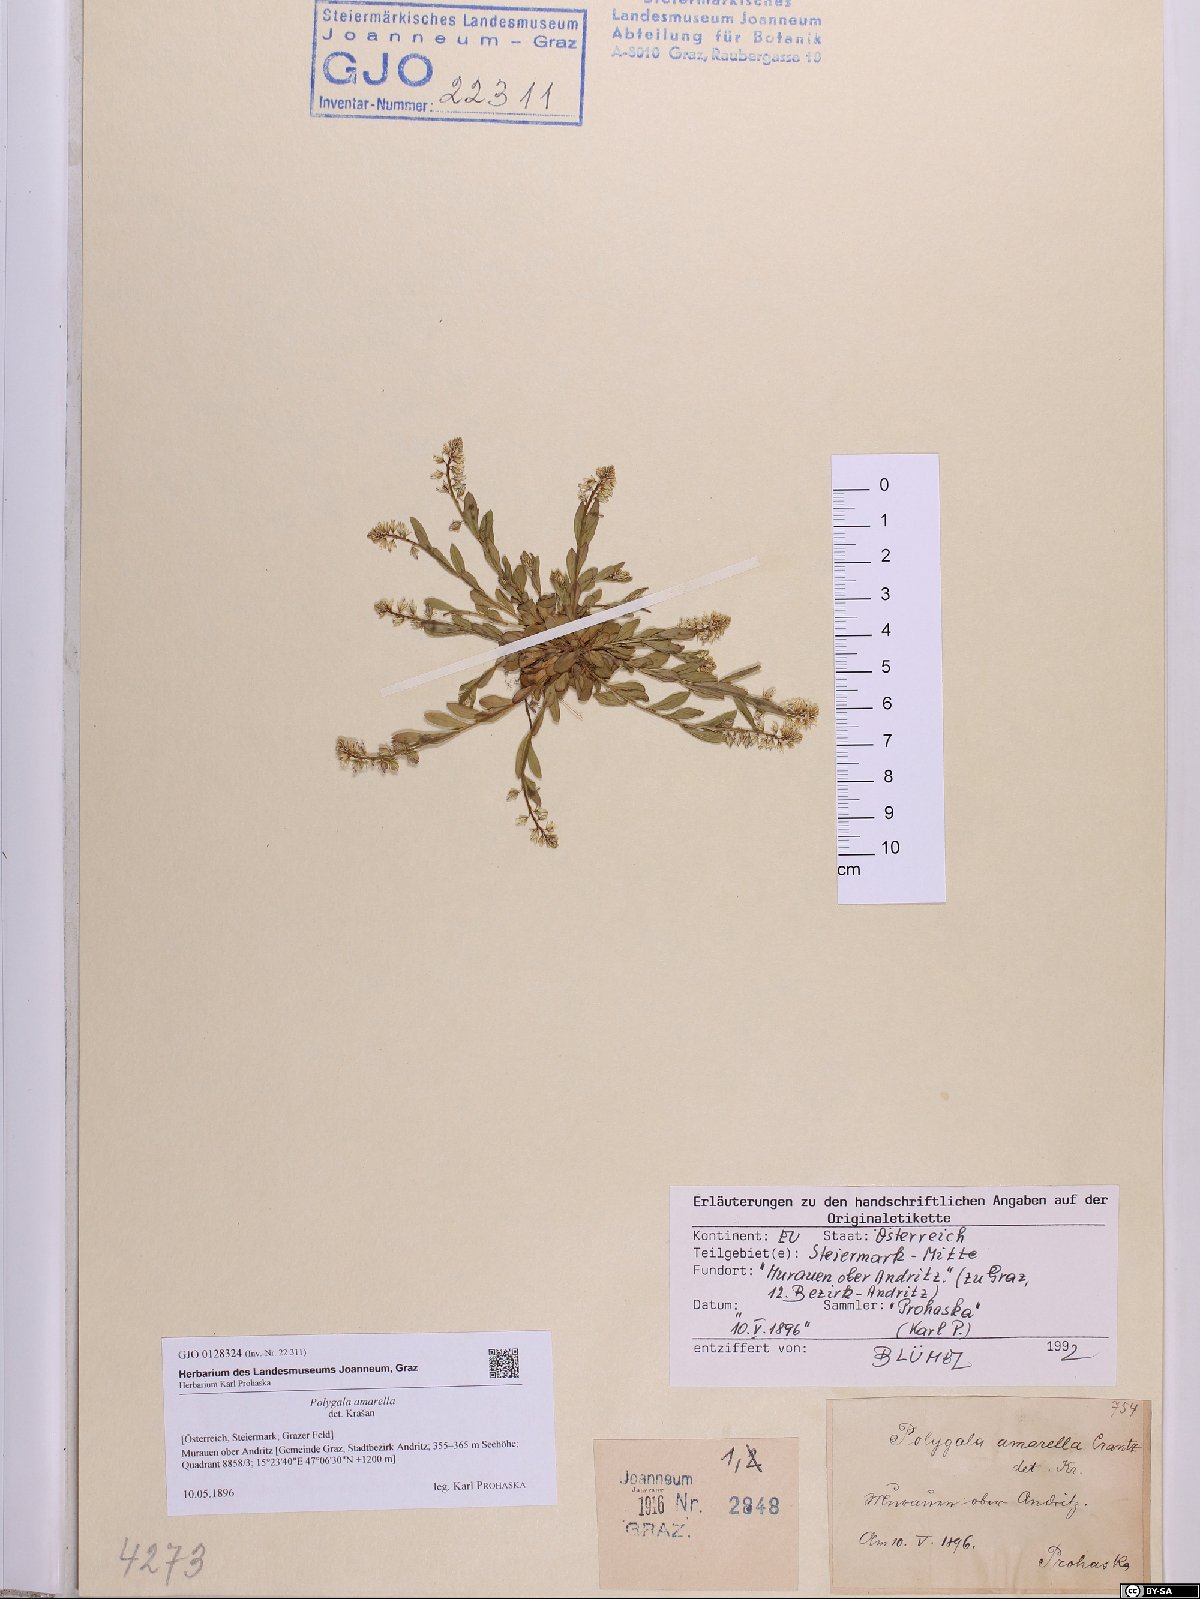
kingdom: Plantae
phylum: Tracheophyta
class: Magnoliopsida
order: Fabales
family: Polygalaceae
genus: Polygala
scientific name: Polygala amarella
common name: Dwarf milkwort
